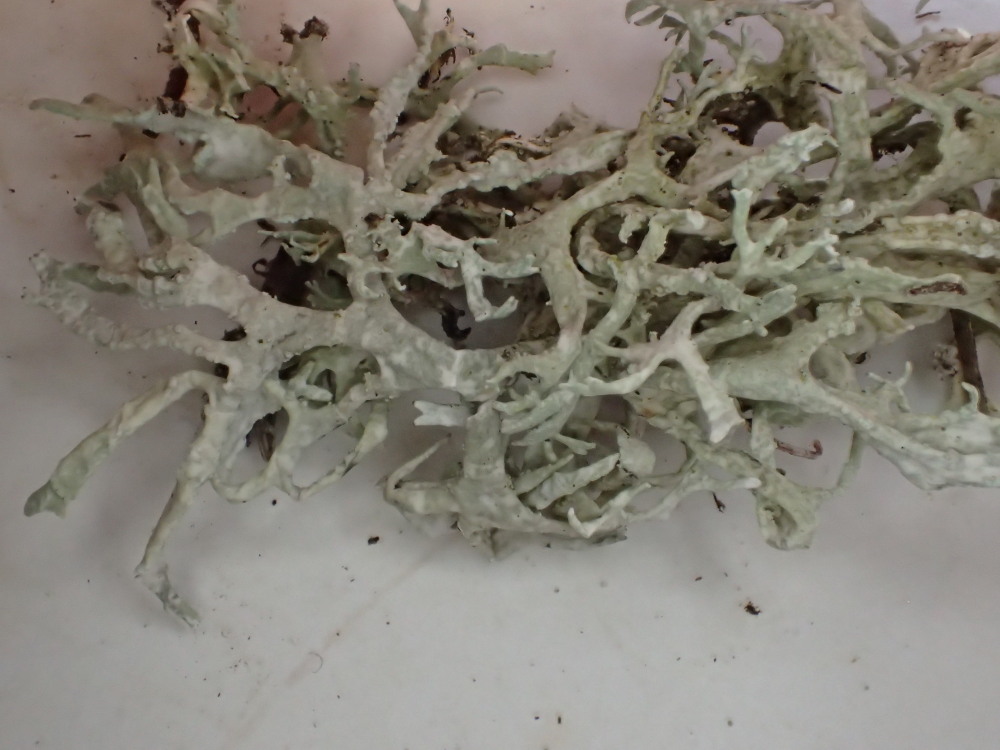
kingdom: Fungi
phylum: Ascomycota
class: Lecanoromycetes
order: Lecanorales
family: Ramalinaceae
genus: Ramalina
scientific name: Ramalina farinacea
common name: melet grenlav
